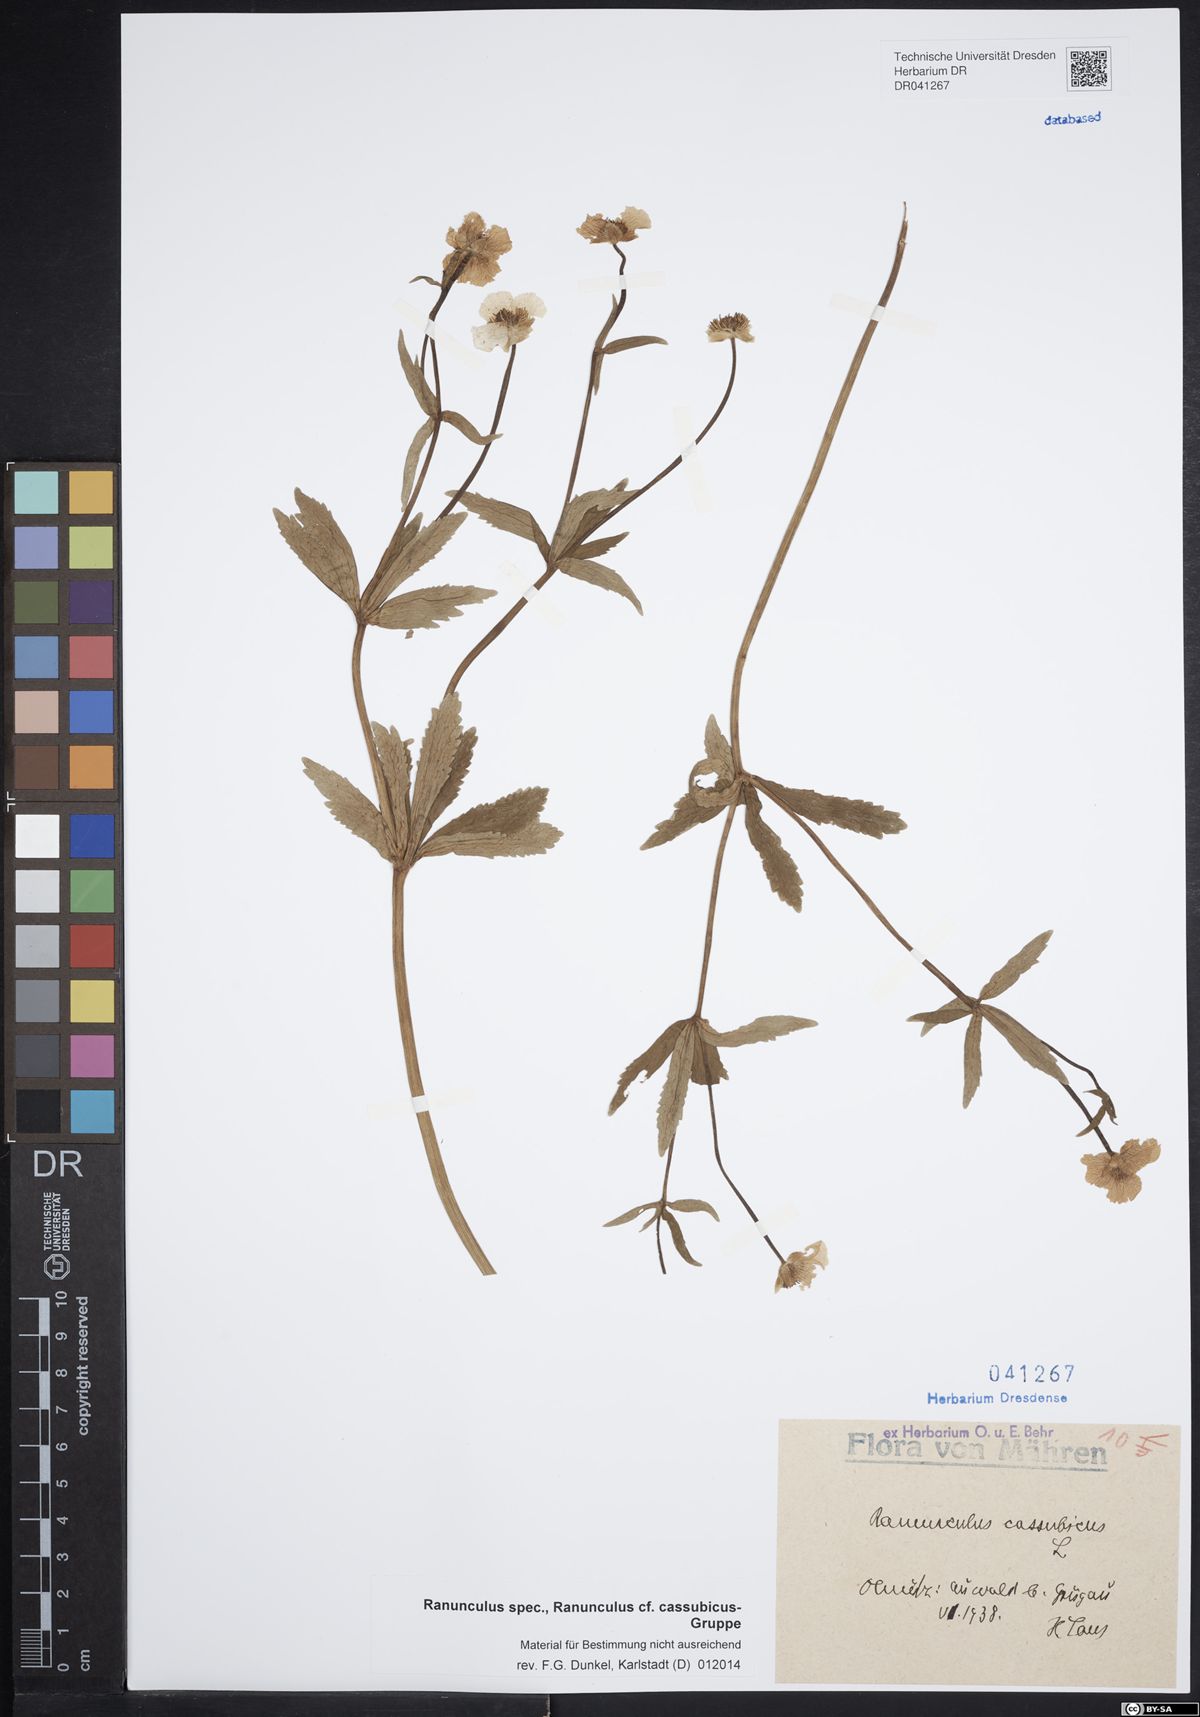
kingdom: Plantae
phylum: Tracheophyta
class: Magnoliopsida
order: Ranunculales
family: Ranunculaceae
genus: Ranunculus
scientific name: Ranunculus cassubicus
